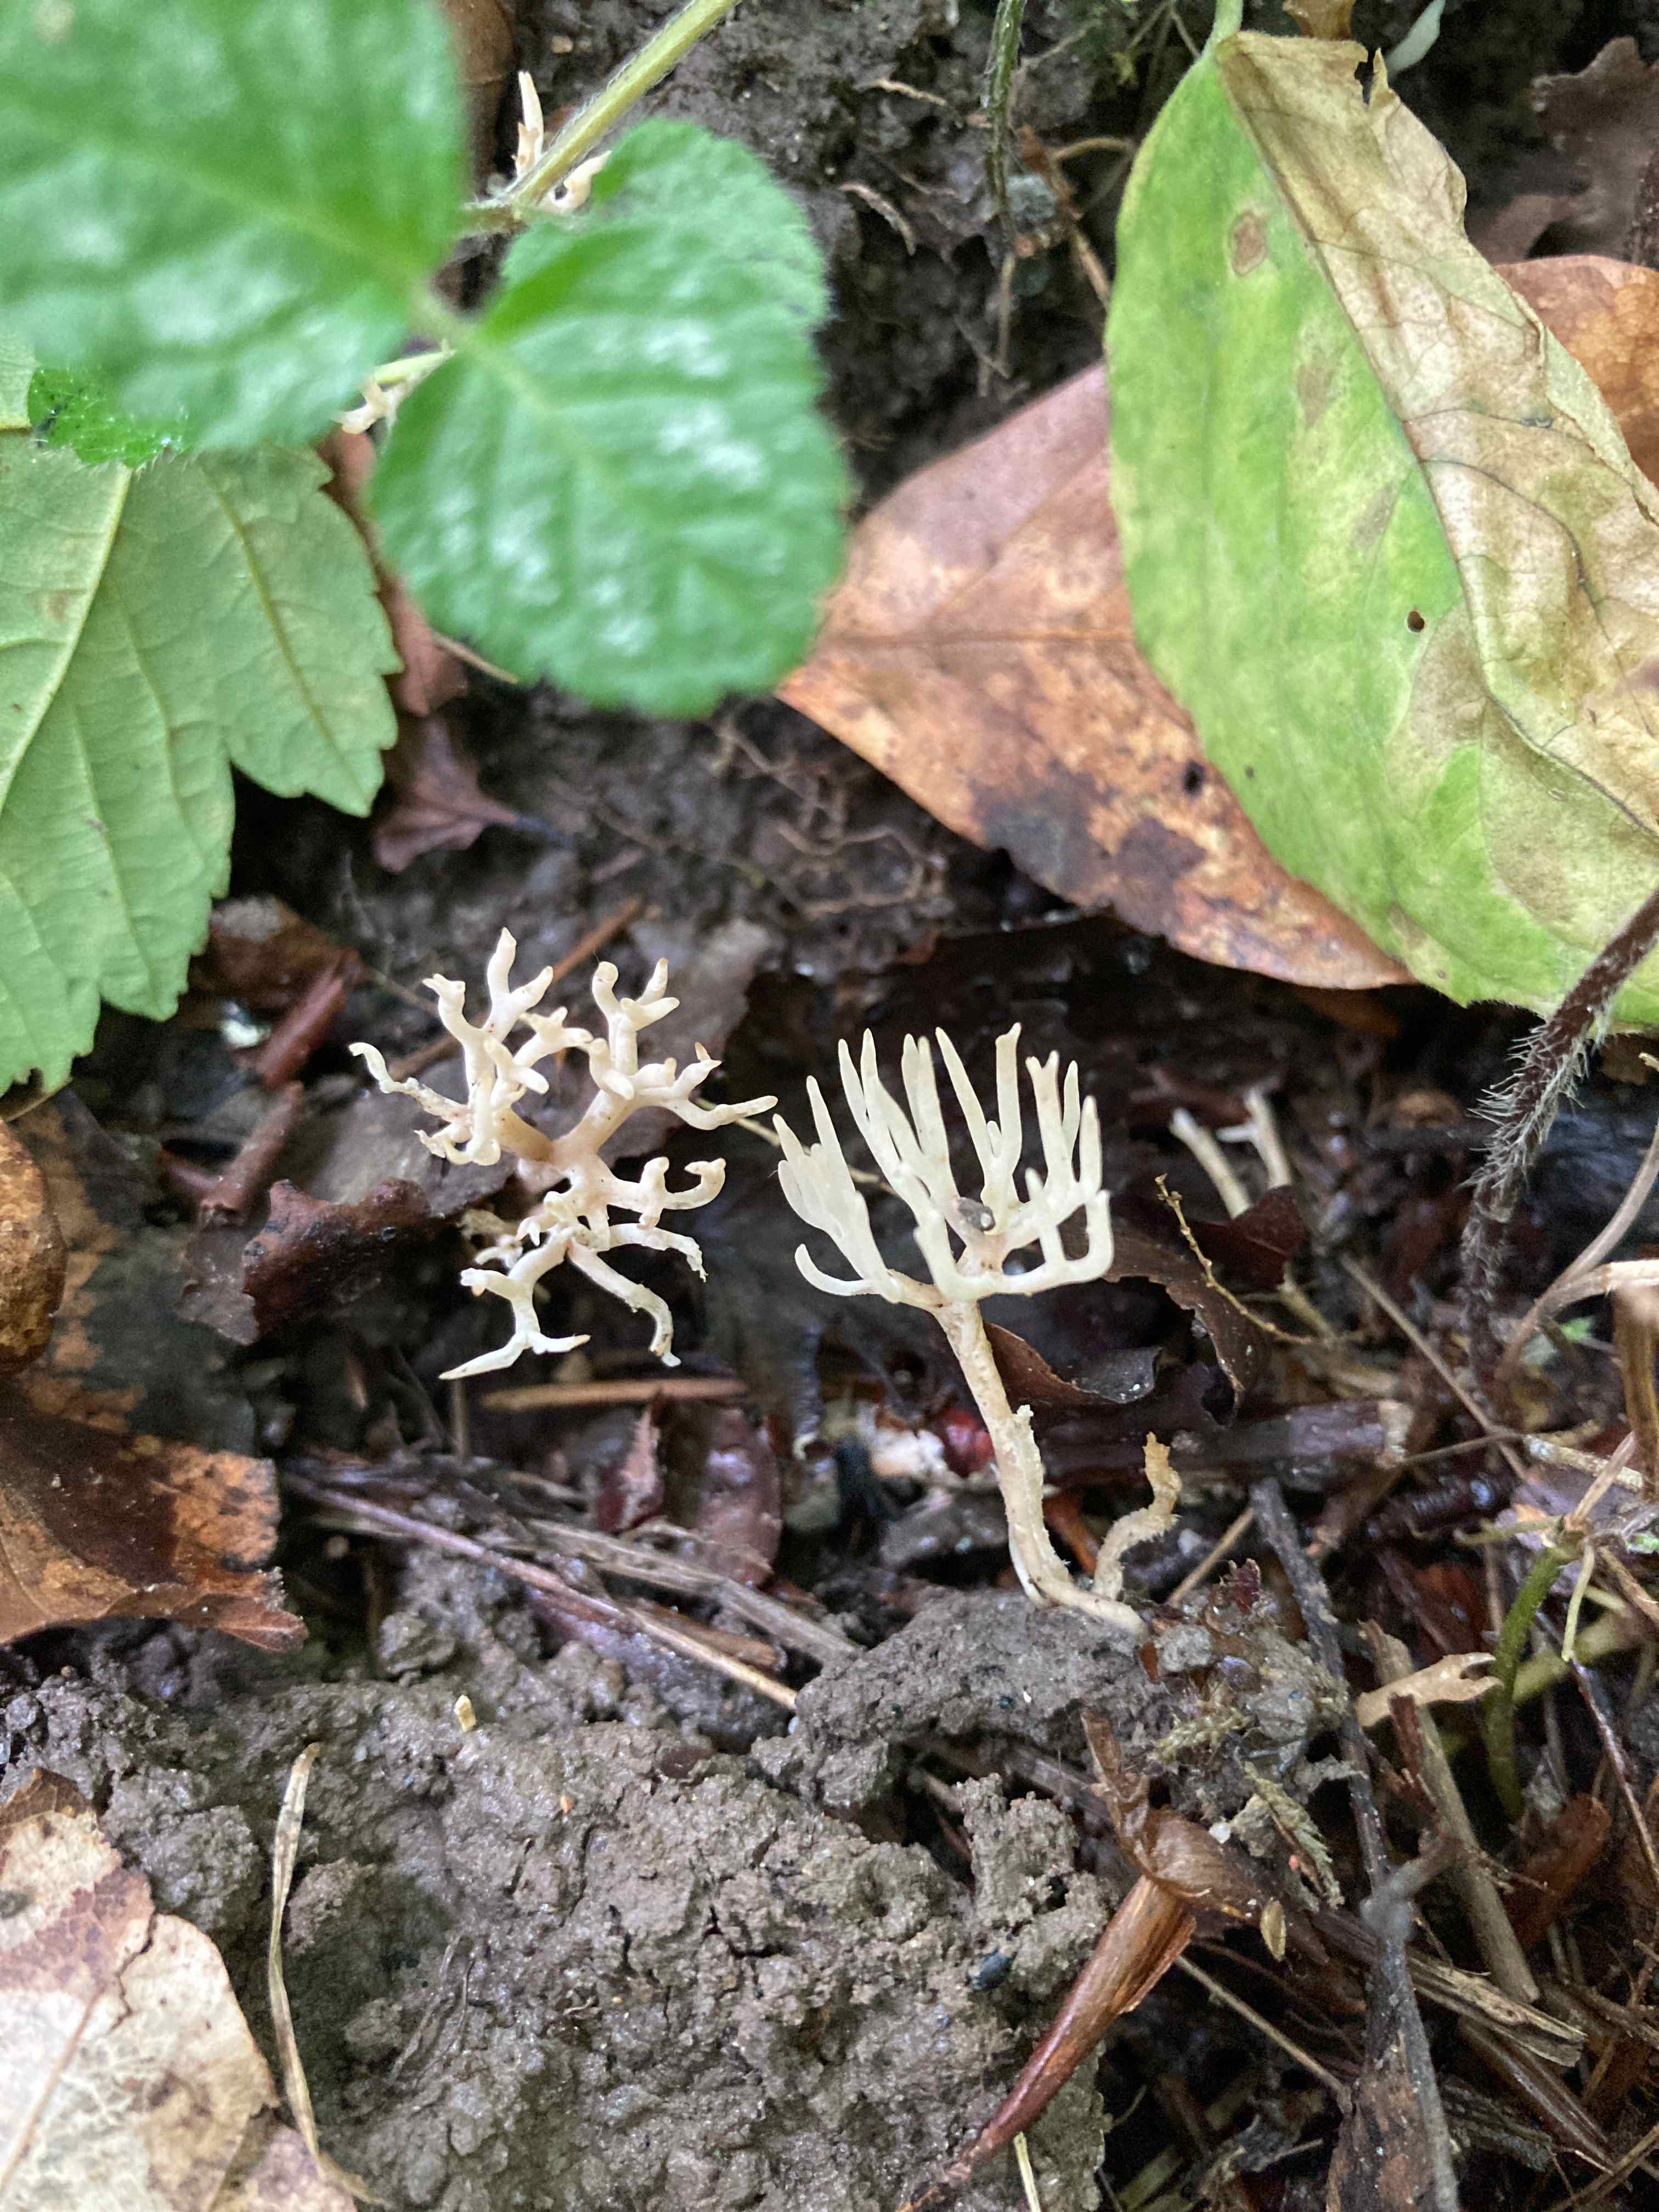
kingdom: Fungi
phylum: Basidiomycota
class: Agaricomycetes
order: Agaricales
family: Clavariaceae
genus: Ramariopsis
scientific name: Ramariopsis
